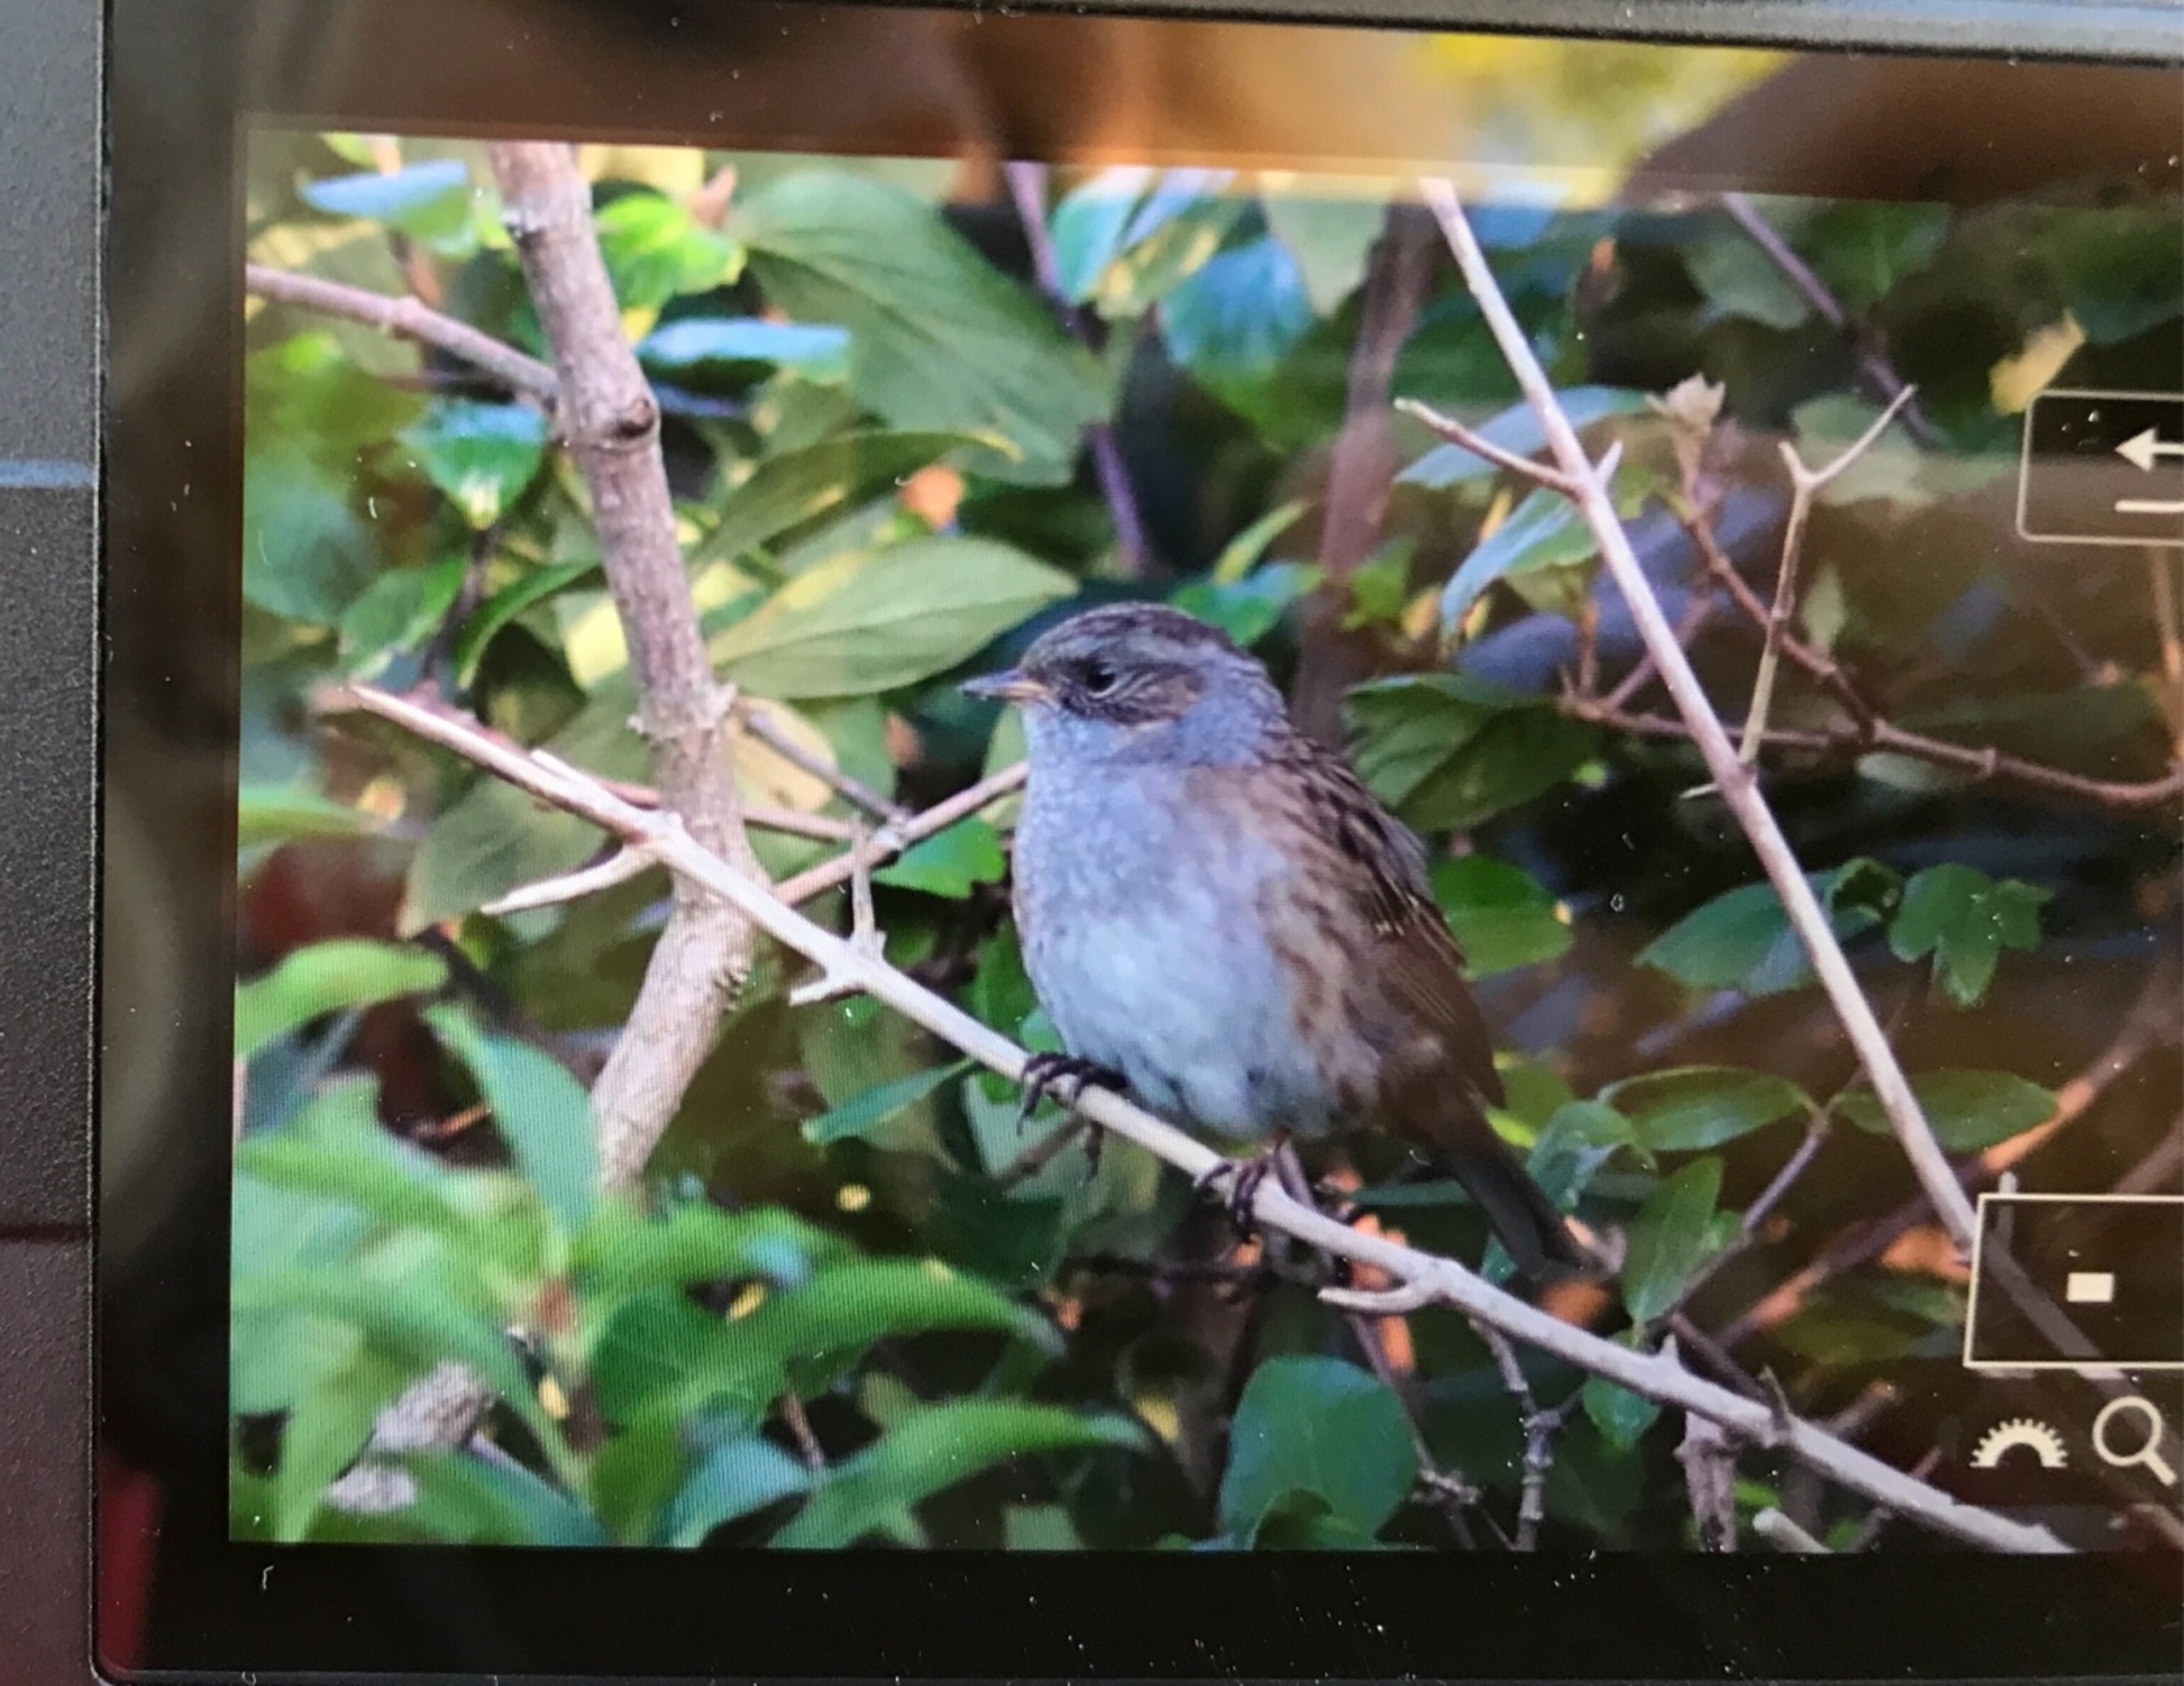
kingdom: Animalia
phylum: Chordata
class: Aves
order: Passeriformes
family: Prunellidae
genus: Prunella
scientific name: Prunella modularis
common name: Jernspurv
